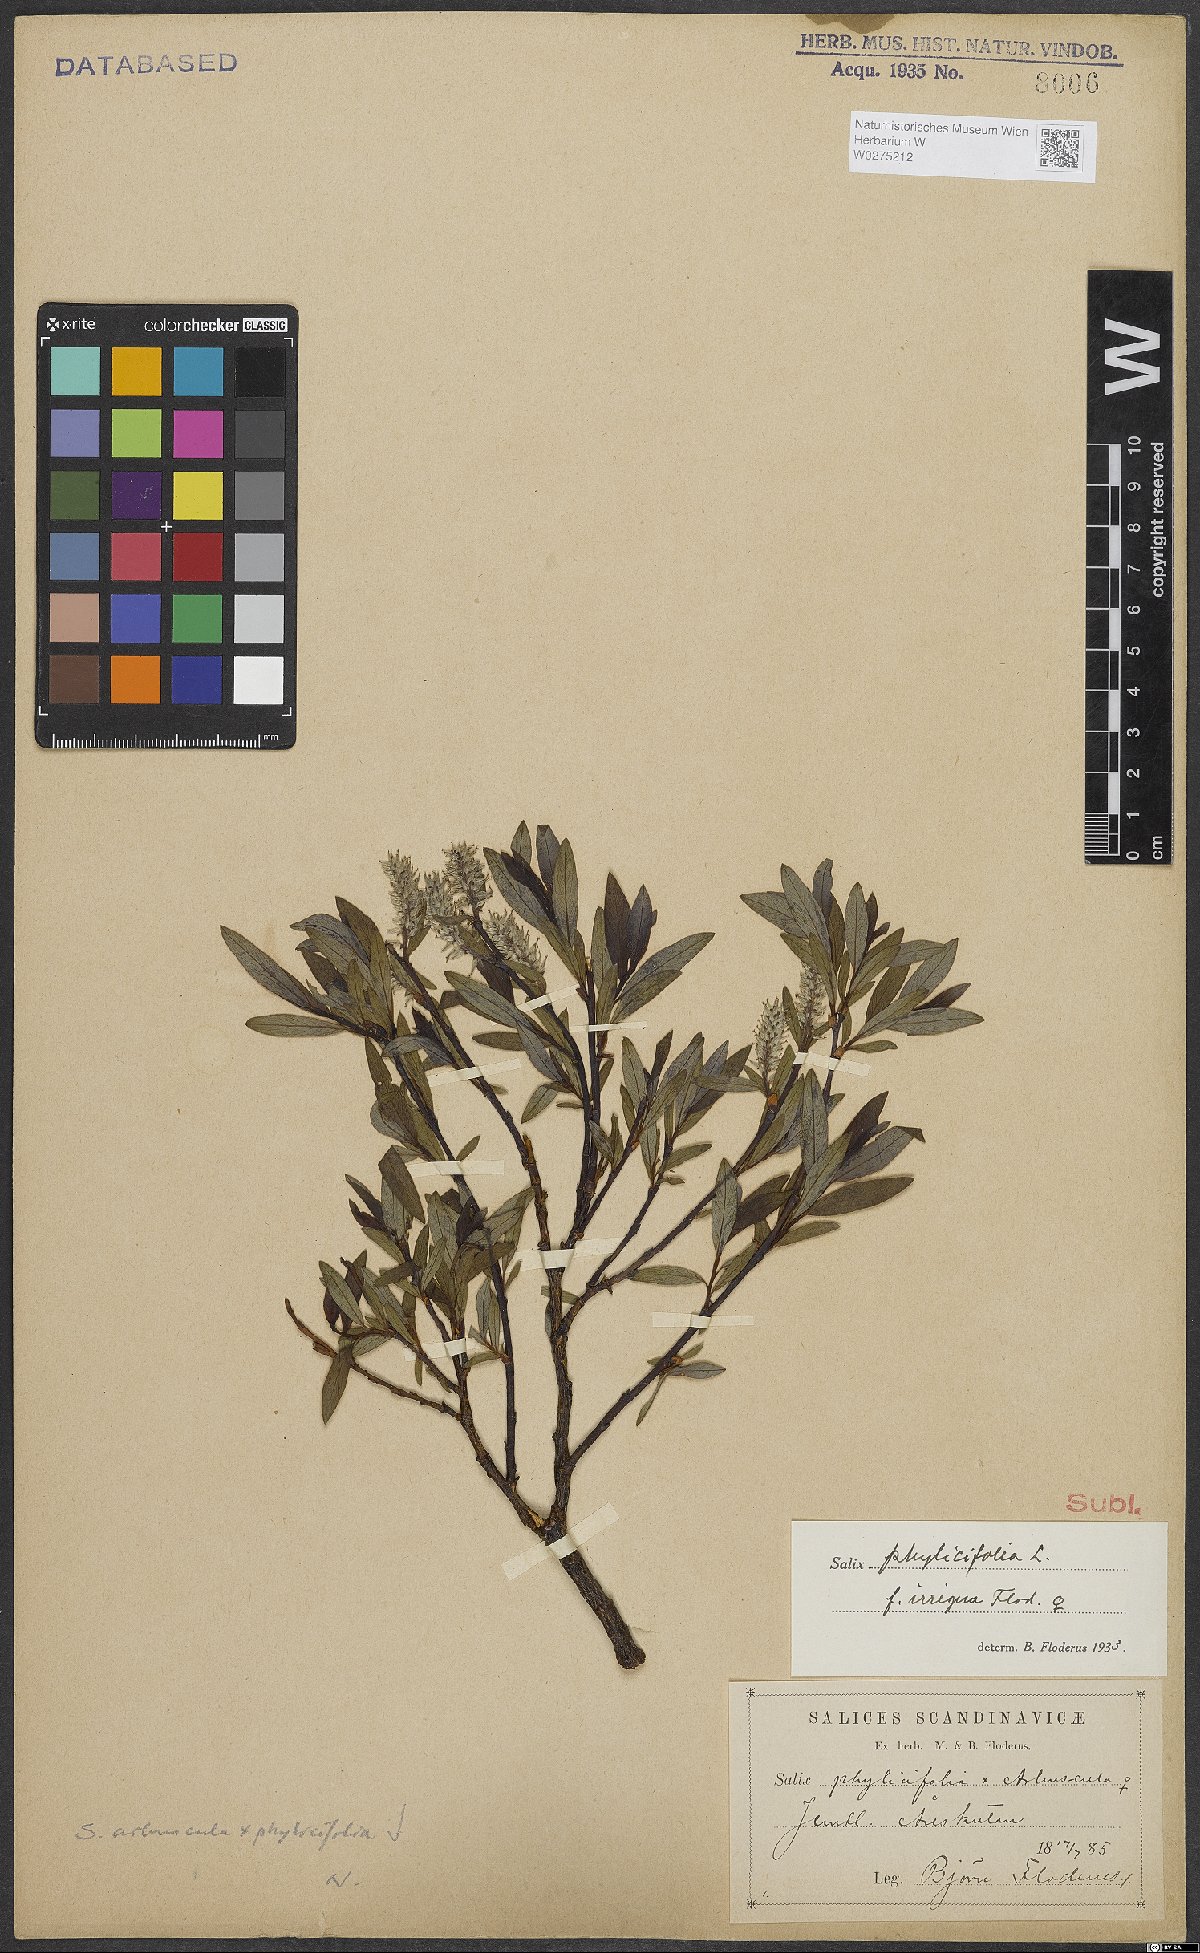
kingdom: Plantae
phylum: Tracheophyta
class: Magnoliopsida
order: Malpighiales
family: Salicaceae
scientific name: Salicaceae
